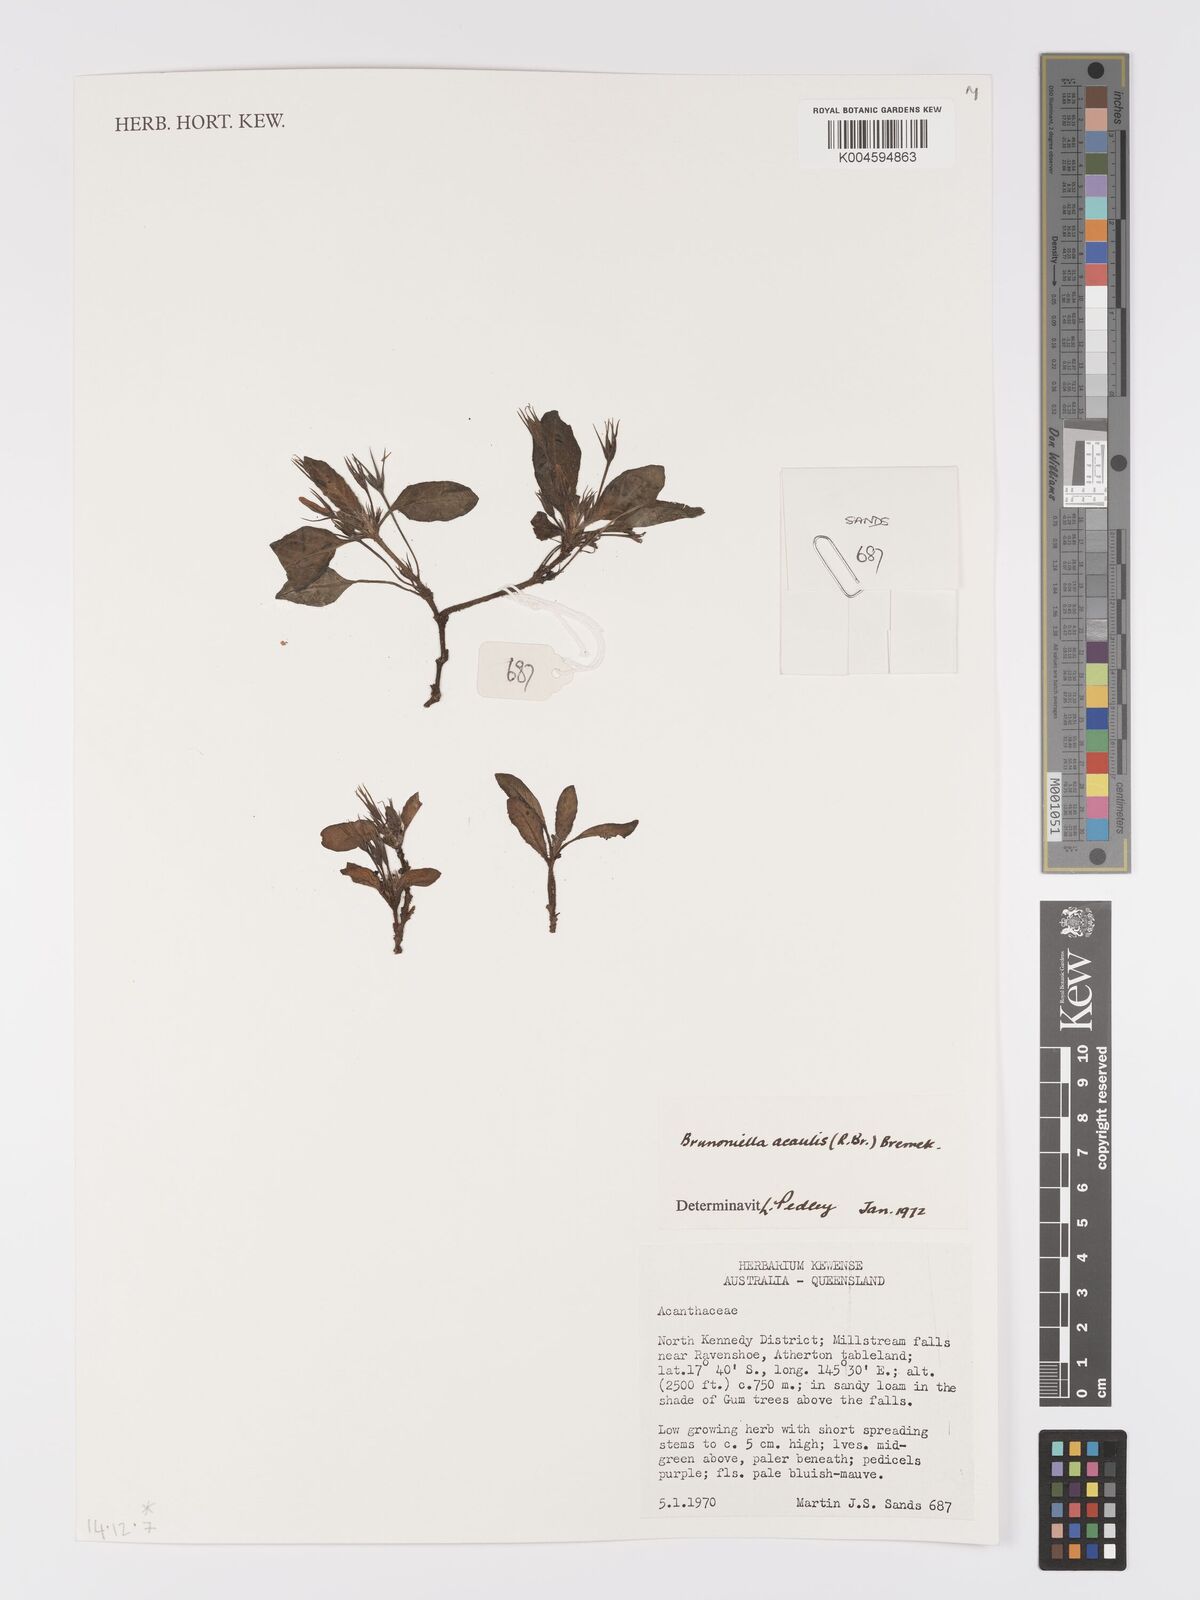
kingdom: Plantae
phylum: Tracheophyta
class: Magnoliopsida
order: Lamiales
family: Acanthaceae
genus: Brunoniella
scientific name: Brunoniella acaulis
